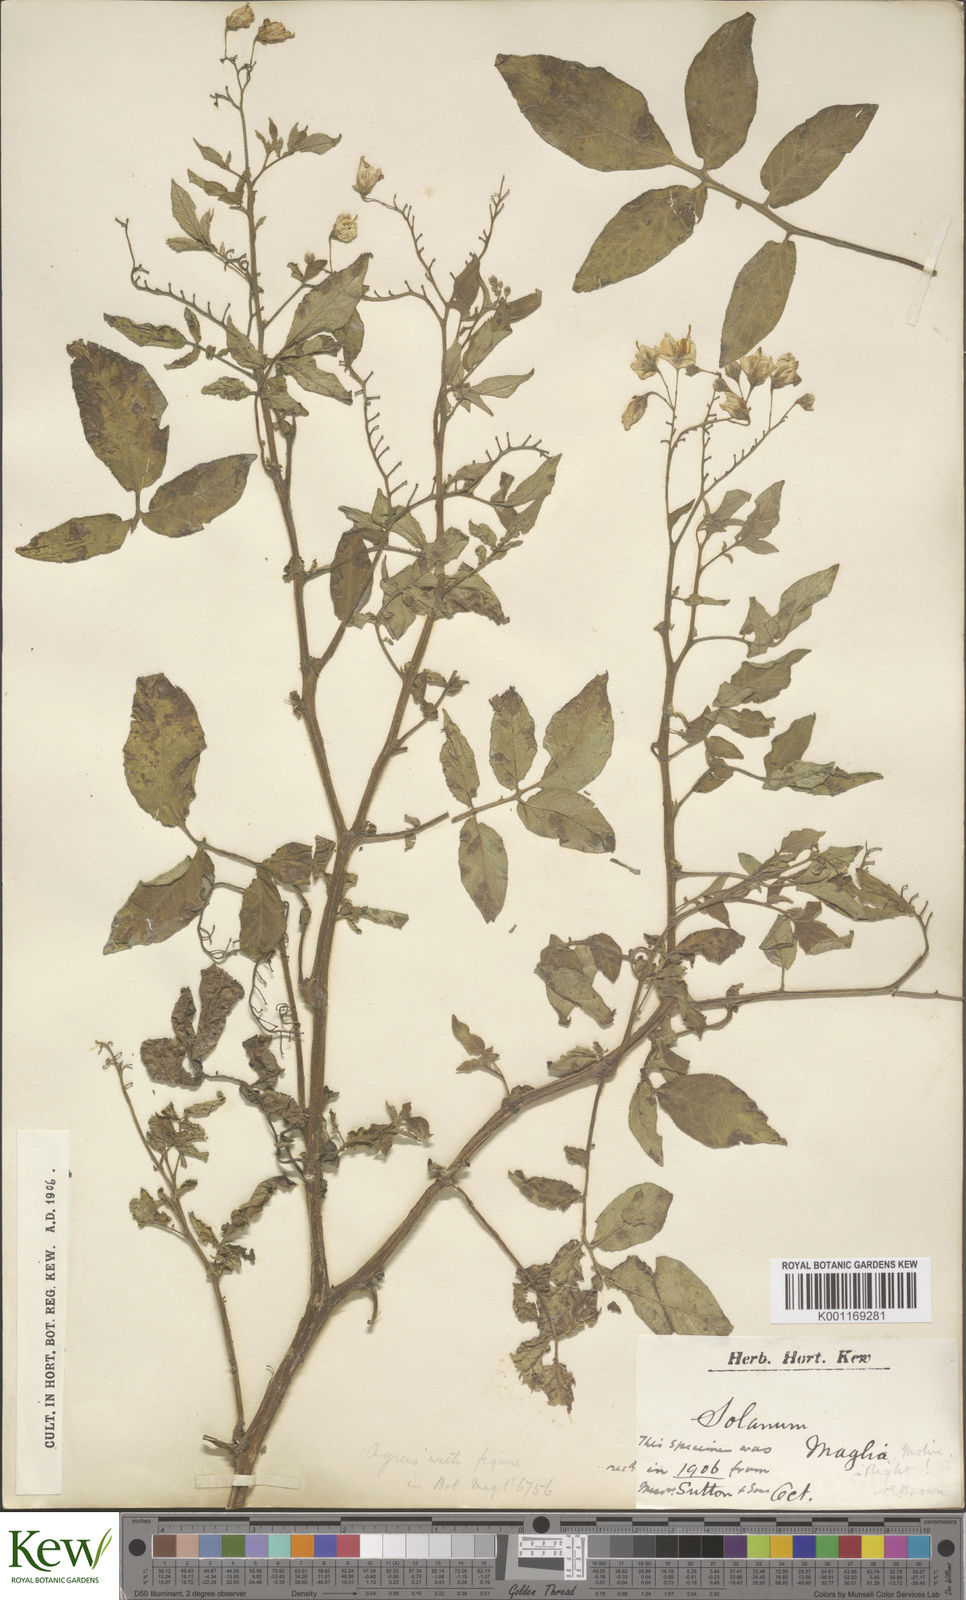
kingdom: Plantae
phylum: Tracheophyta
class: Magnoliopsida
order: Solanales
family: Solanaceae
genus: Solanum
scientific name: Solanum maglia
